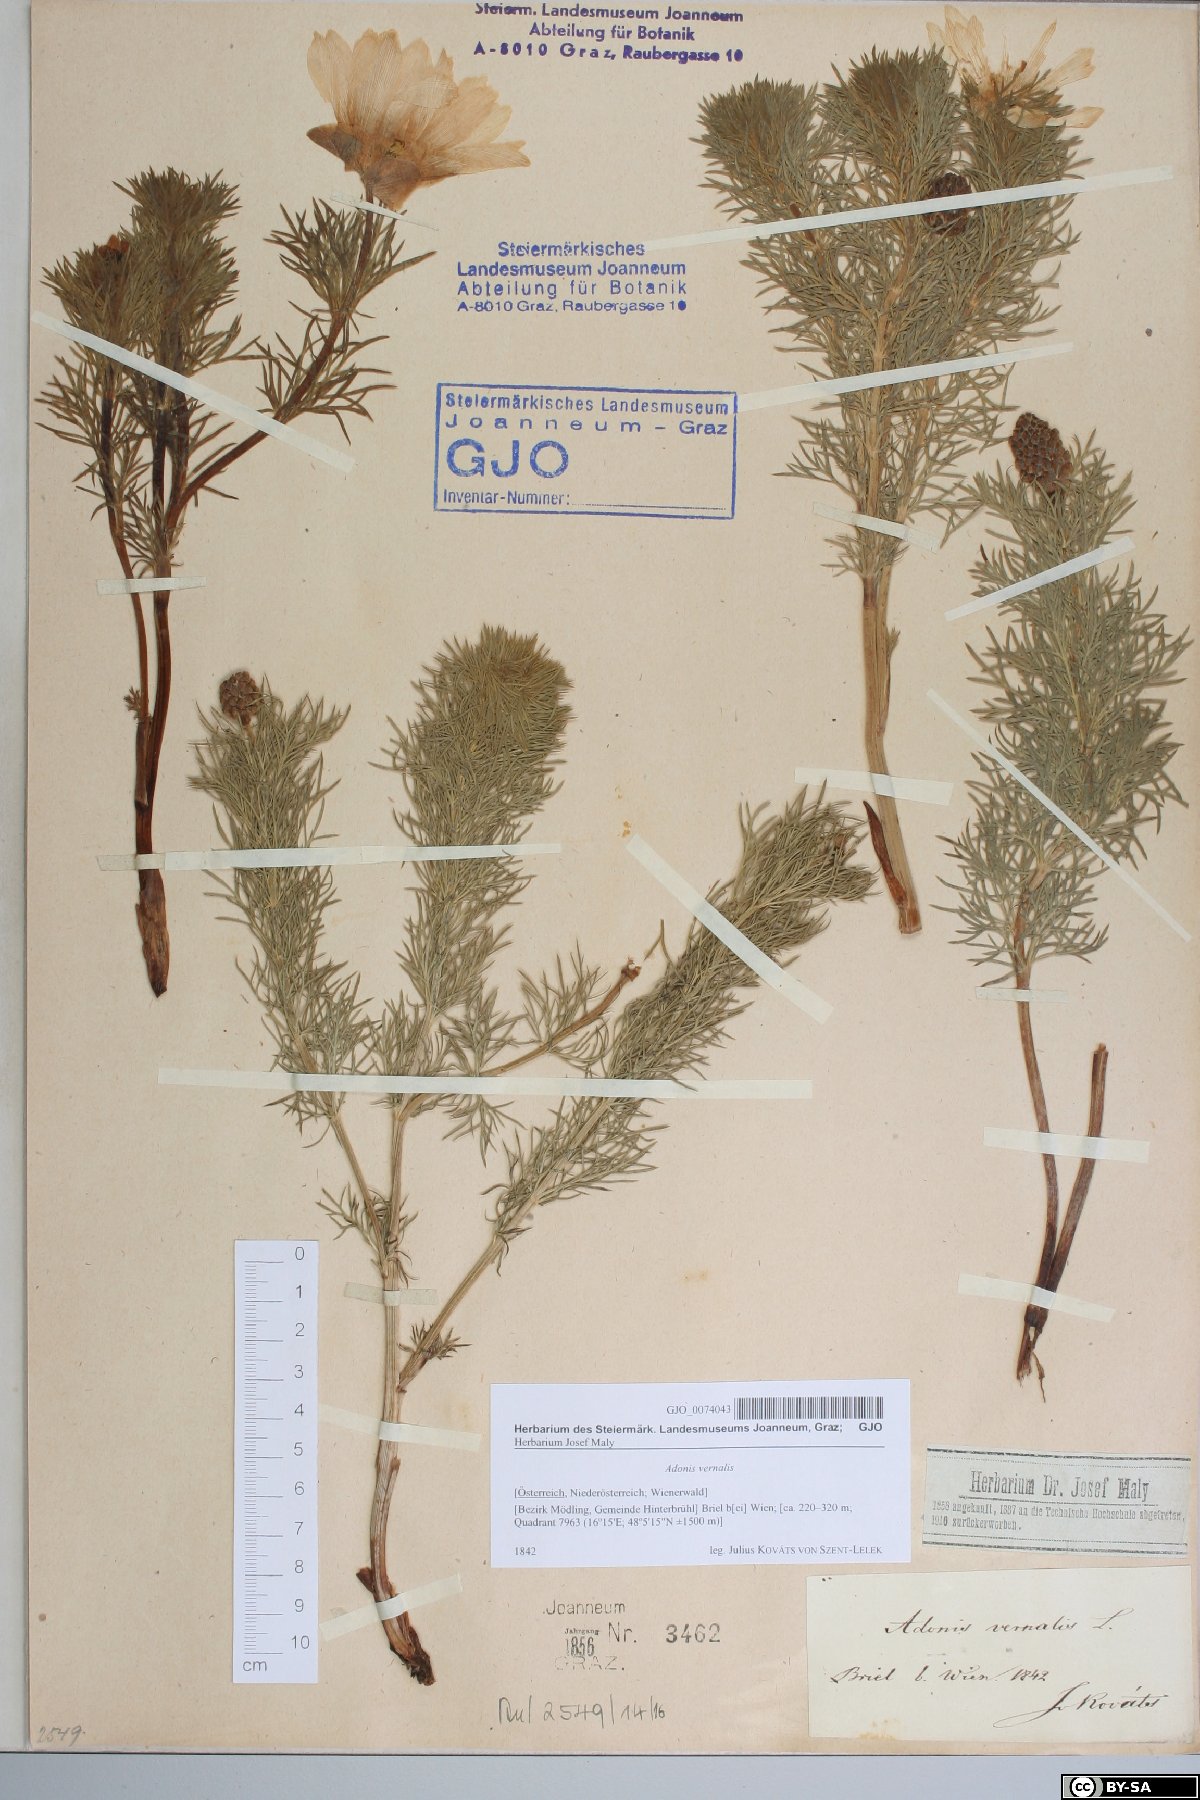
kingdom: Plantae
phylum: Tracheophyta
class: Magnoliopsida
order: Ranunculales
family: Ranunculaceae
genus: Adonis
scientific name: Adonis vernalis
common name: Yellow pheasants-eye
